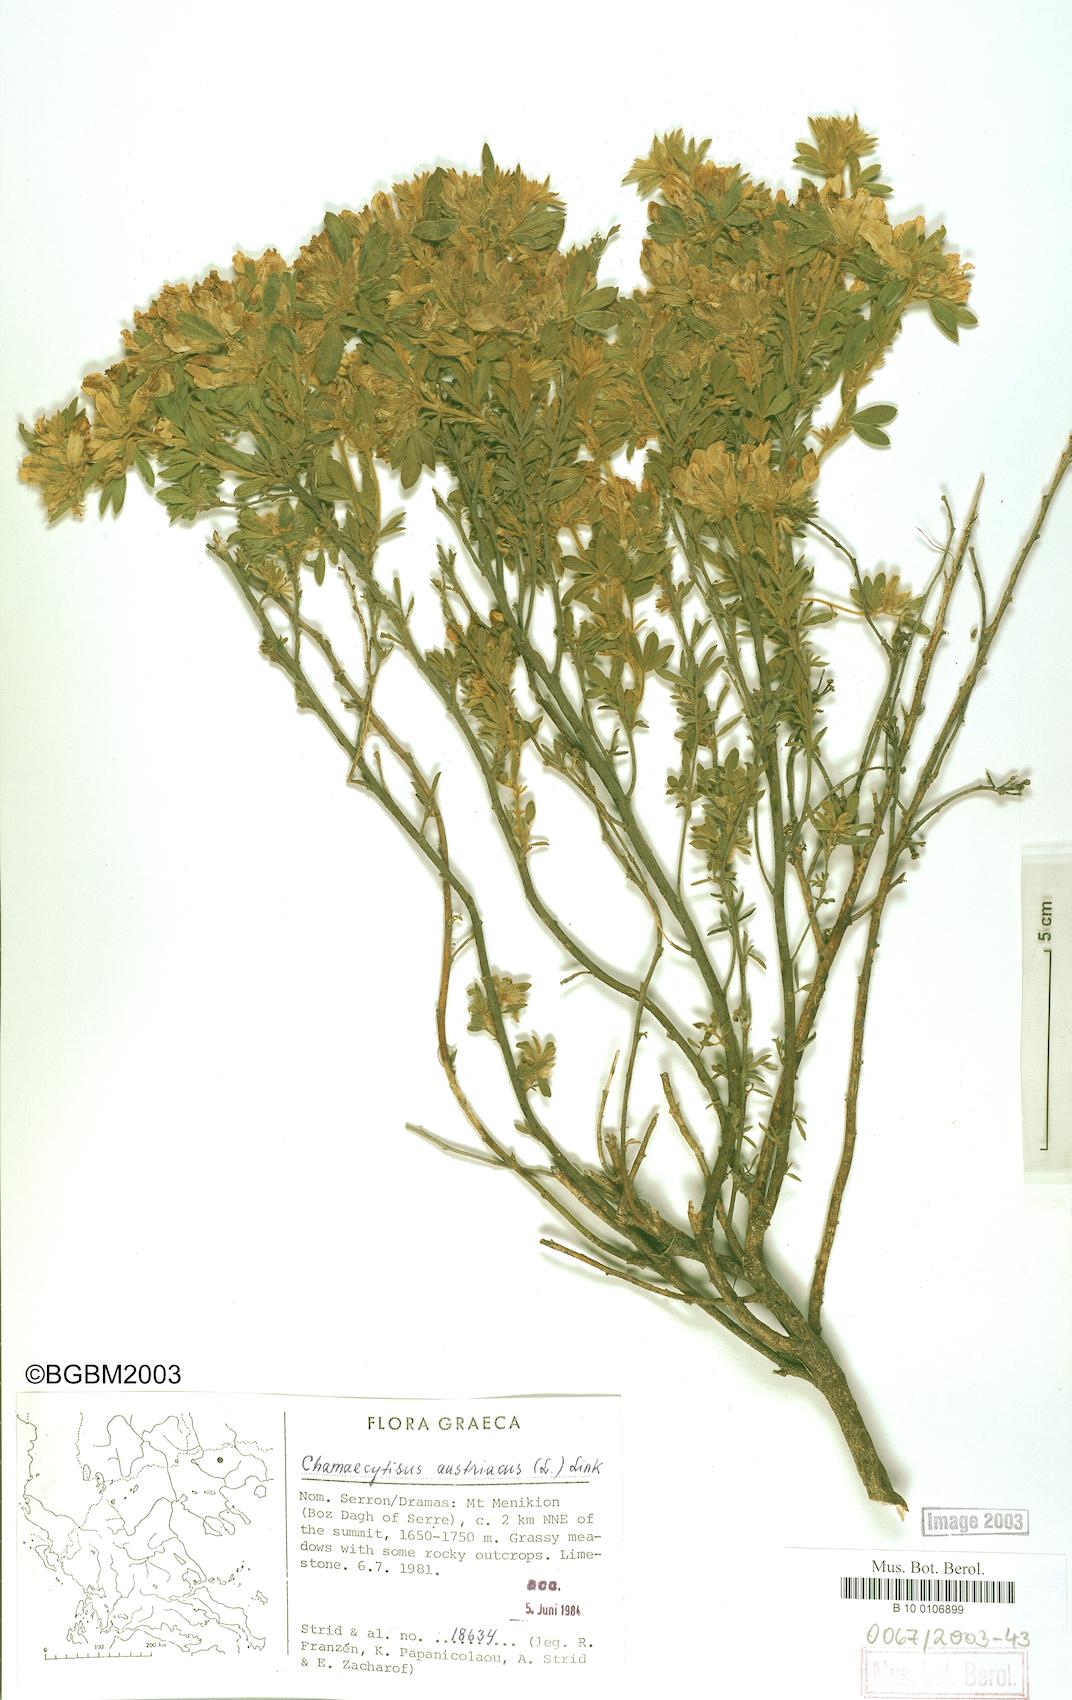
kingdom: Plantae
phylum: Tracheophyta
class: Magnoliopsida
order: Fabales
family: Fabaceae
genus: Chamaecytisus
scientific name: Chamaecytisus austriacus
